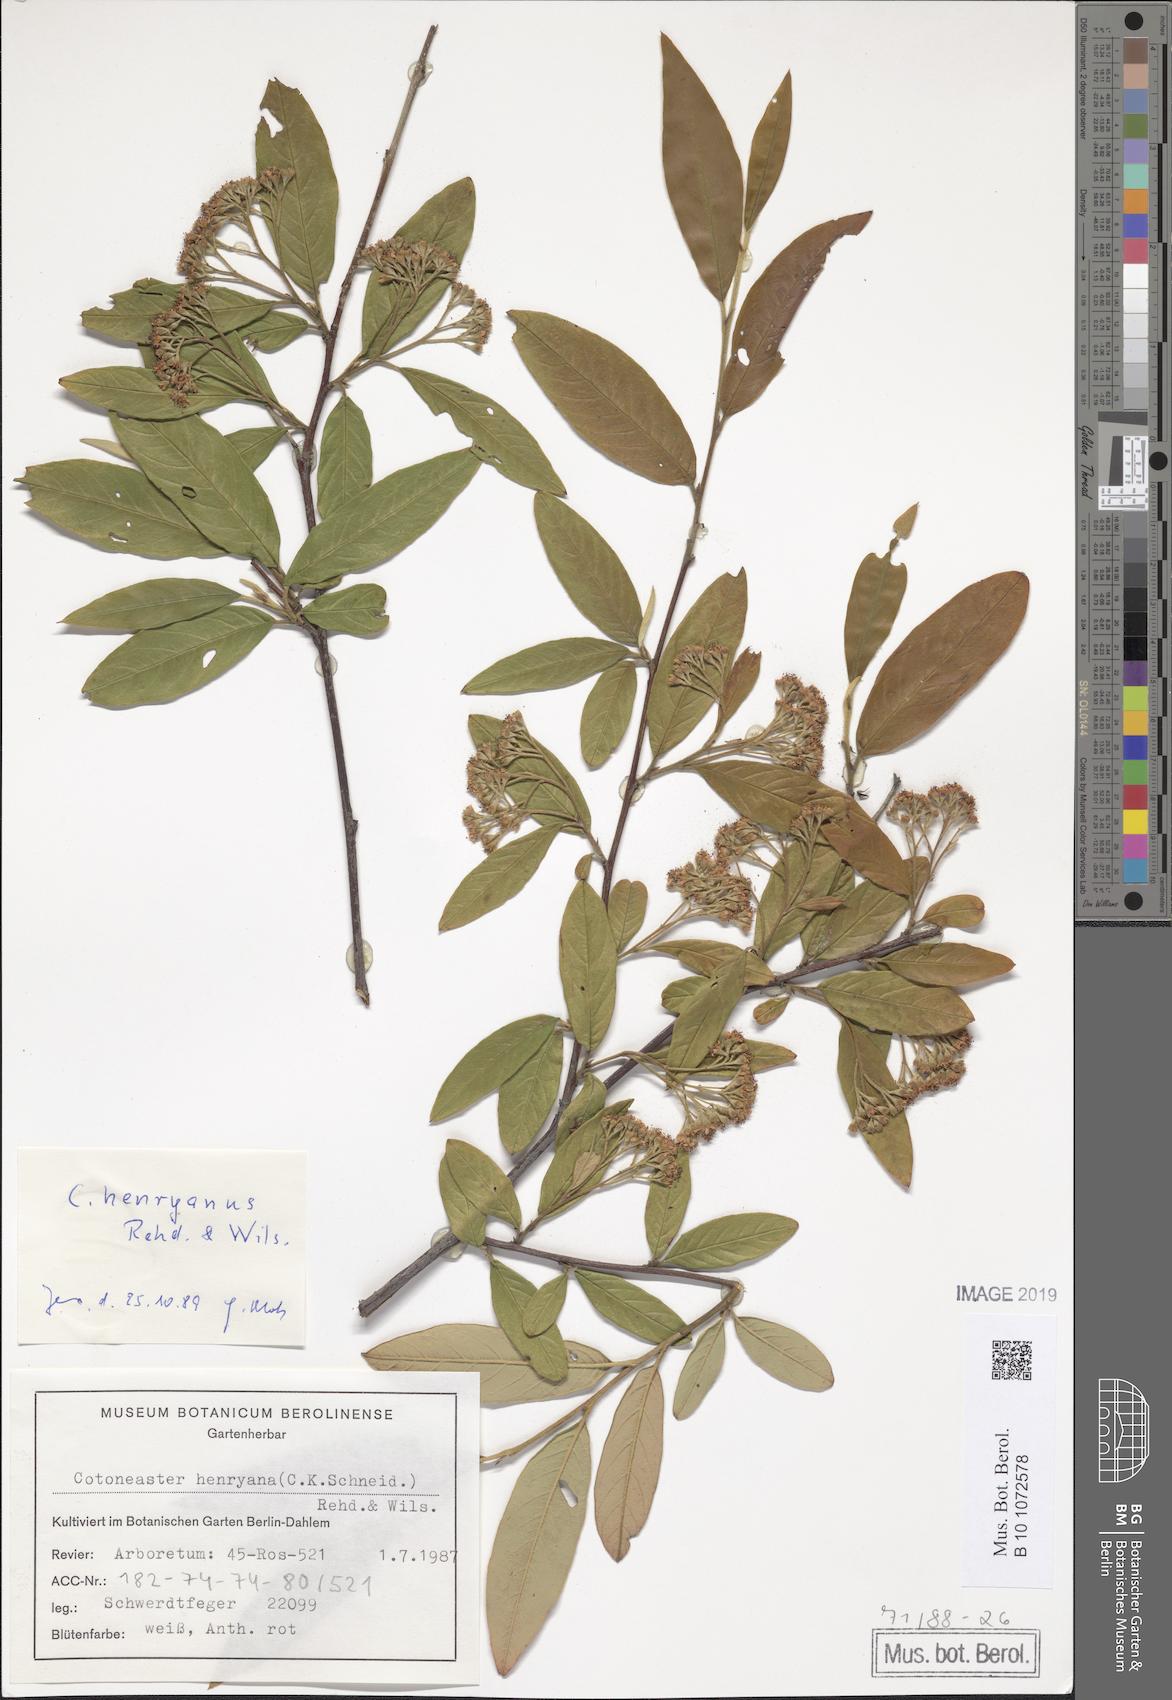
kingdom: Plantae
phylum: Tracheophyta
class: Magnoliopsida
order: Rosales
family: Rosaceae
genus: Cotoneaster
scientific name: Cotoneaster salicifolius
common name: Willow-leaved cotoneaster
